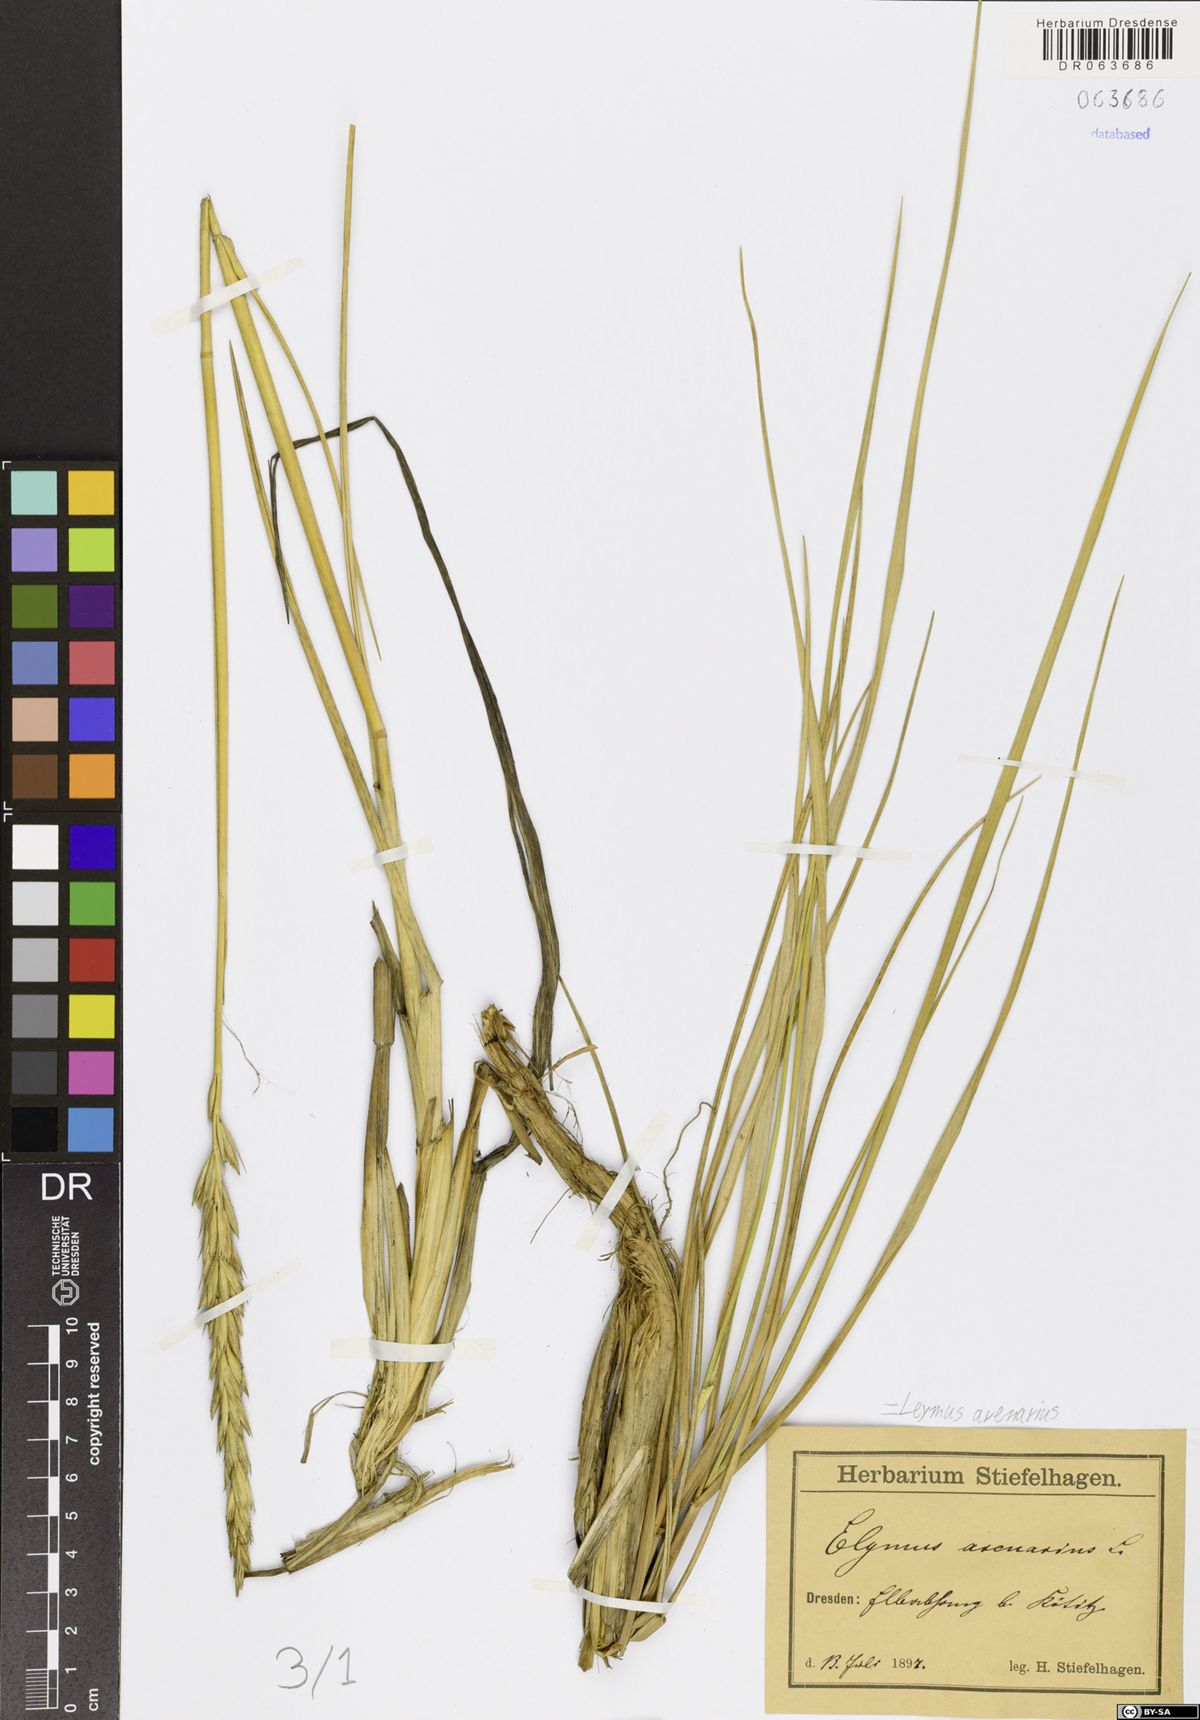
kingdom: Plantae
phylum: Tracheophyta
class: Liliopsida
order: Poales
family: Poaceae
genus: Leymus
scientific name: Leymus arenarius
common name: Lyme-grass
